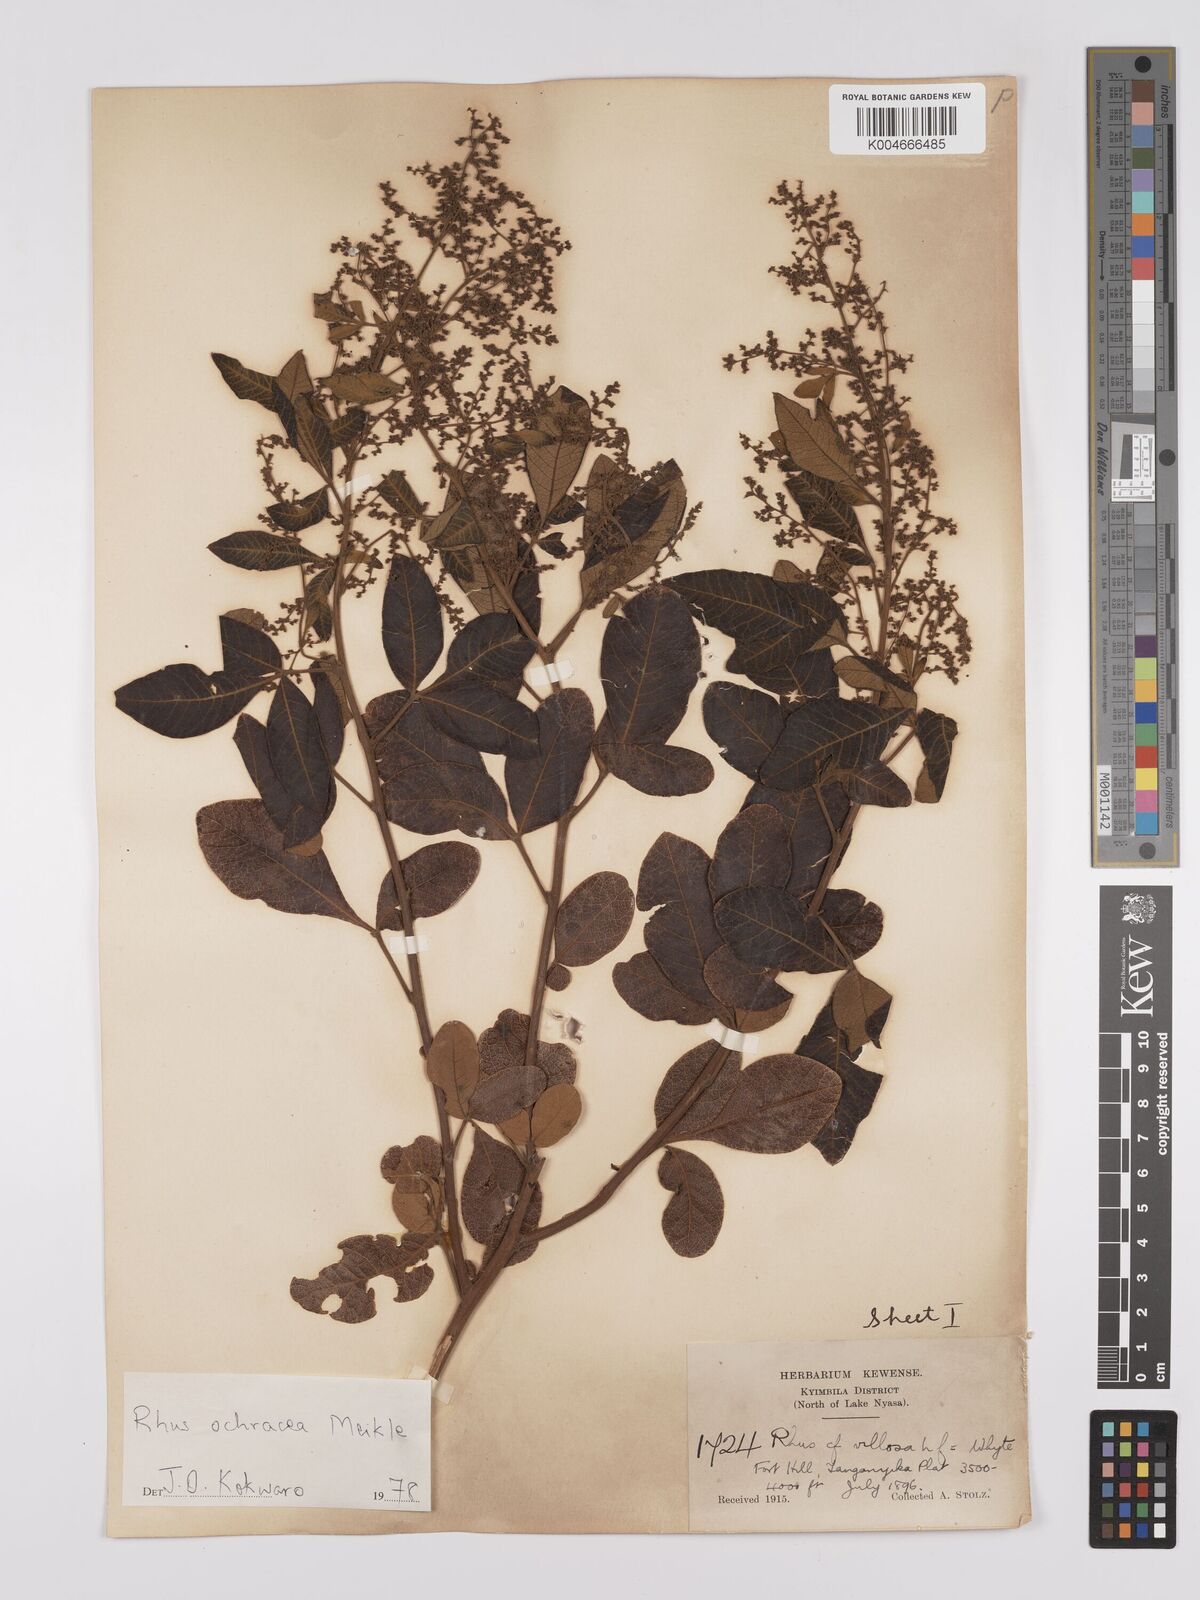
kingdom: Plantae
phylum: Tracheophyta
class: Magnoliopsida
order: Sapindales
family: Anacardiaceae
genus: Searsia
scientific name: Searsia ochracea
